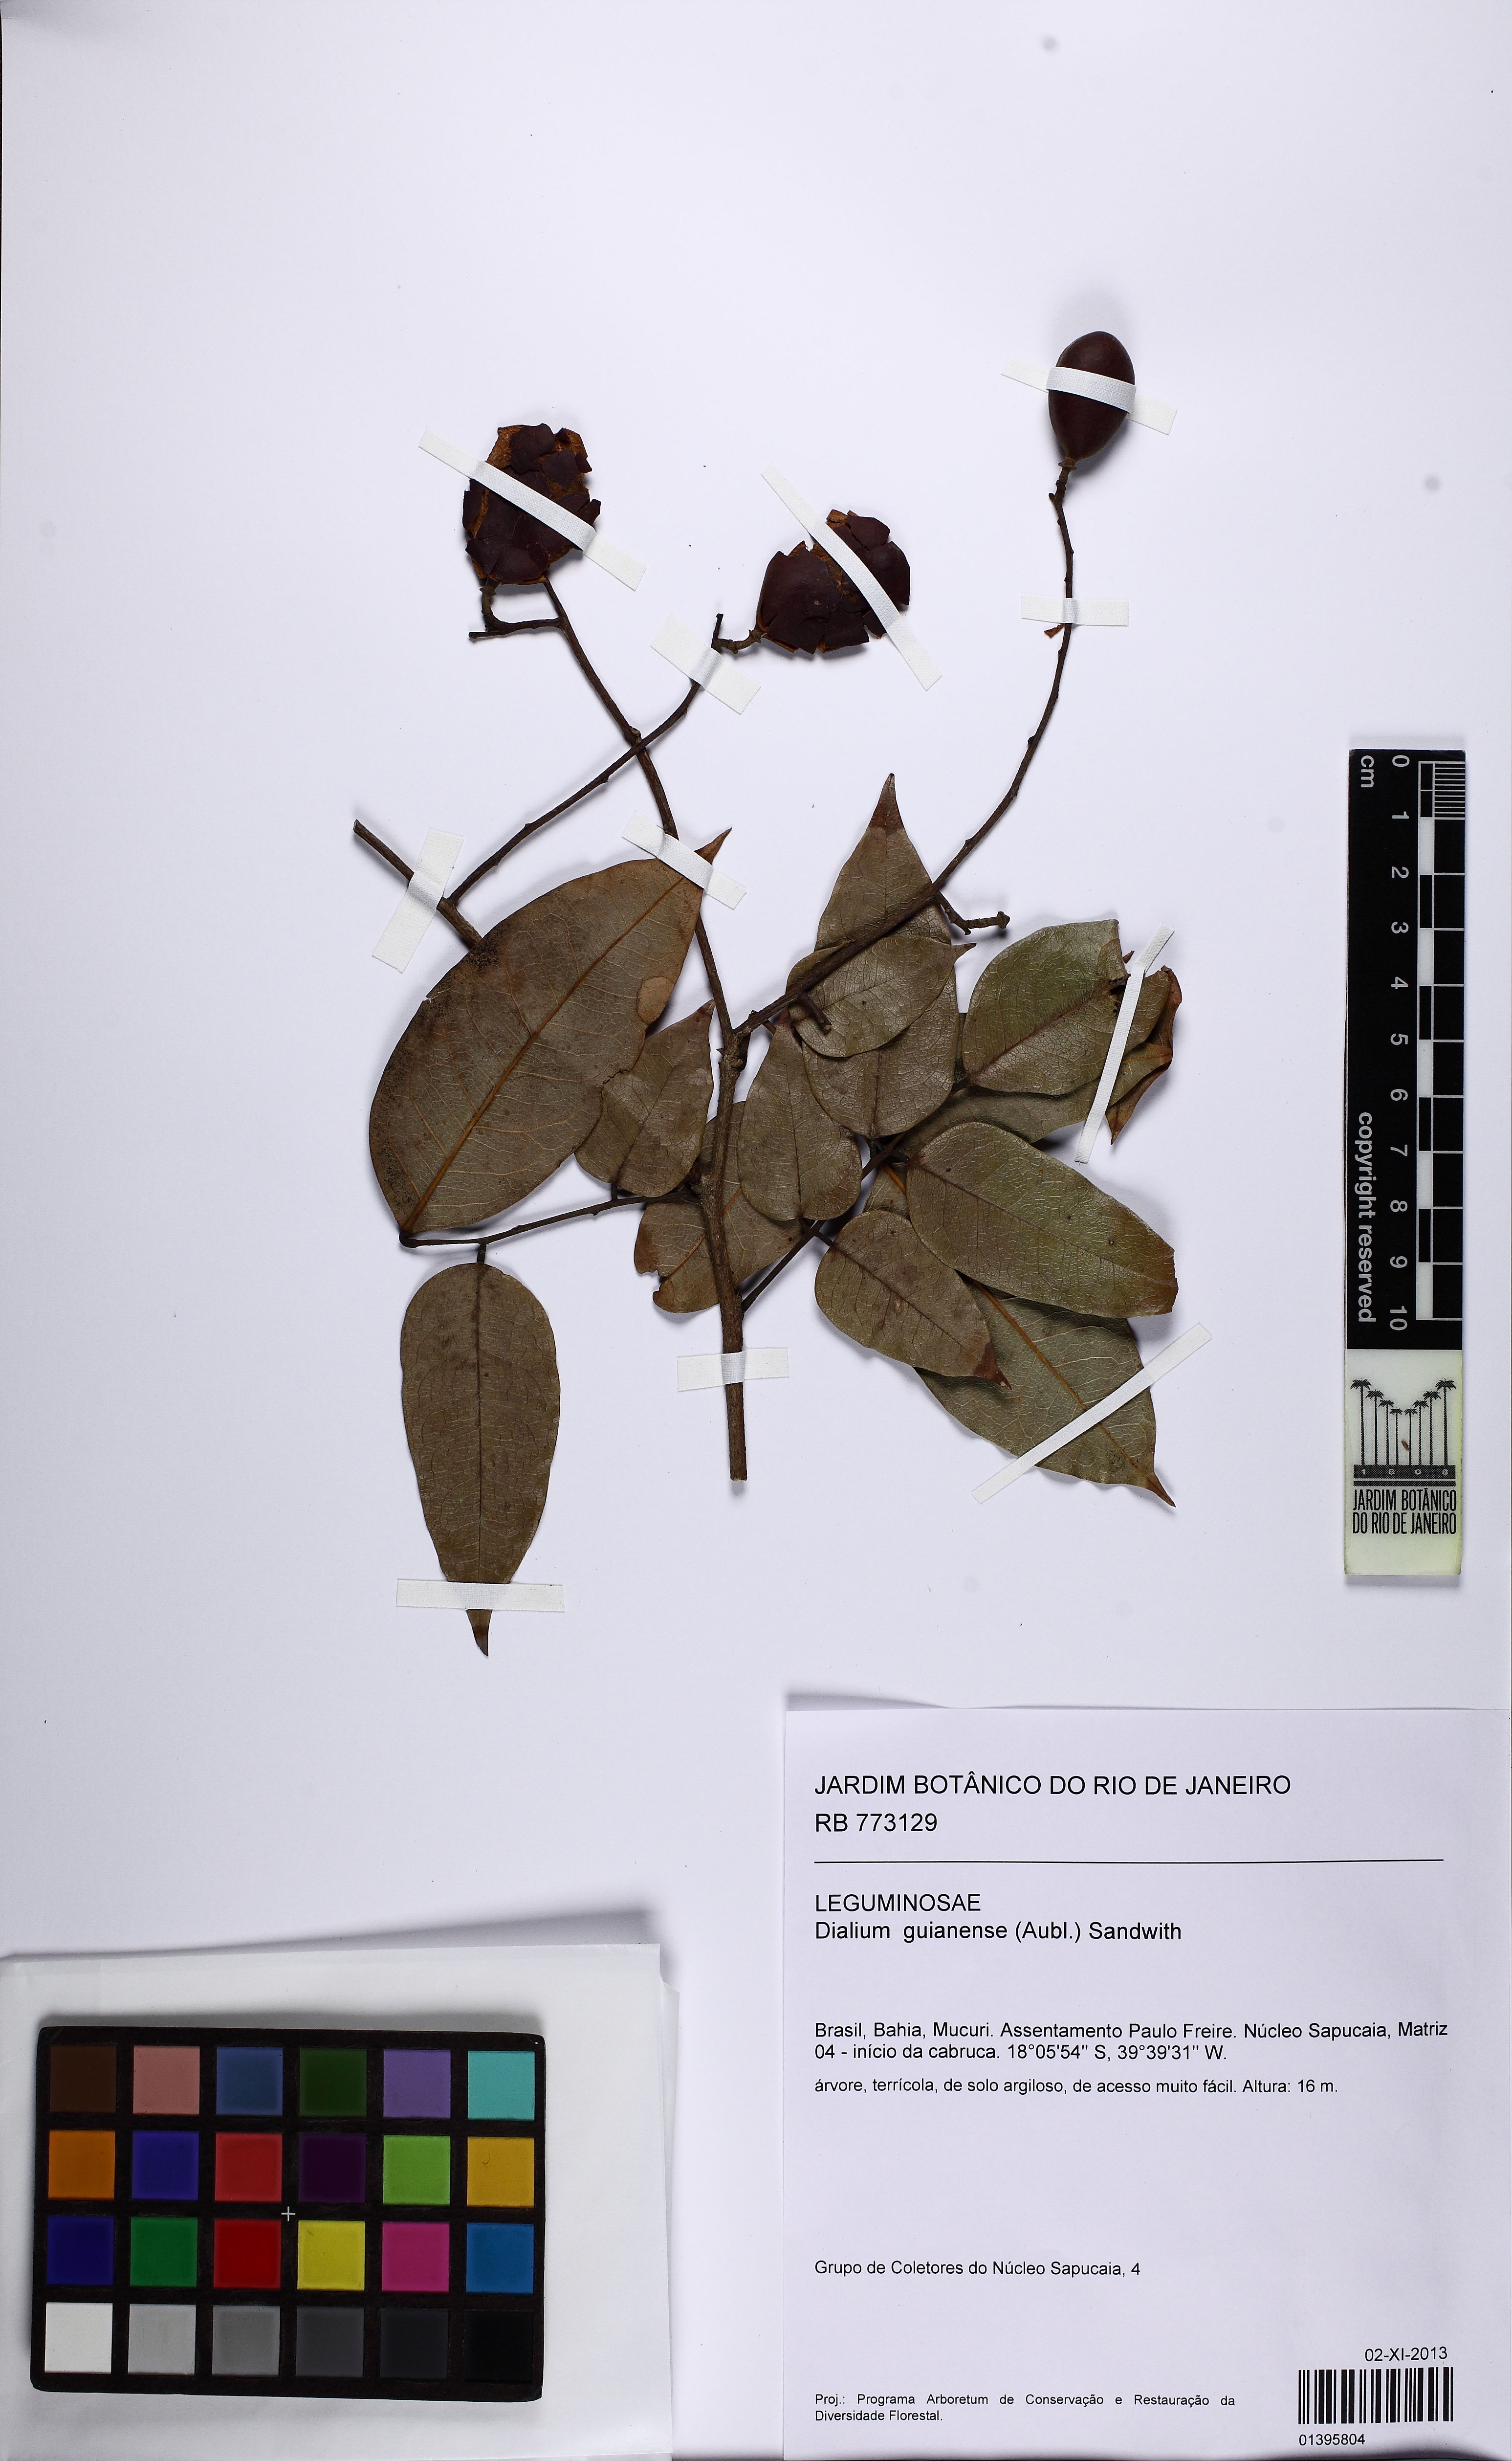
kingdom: Plantae
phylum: Tracheophyta
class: Magnoliopsida
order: Fabales
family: Fabaceae
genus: Dialium
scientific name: Dialium guianense
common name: Ironwood
